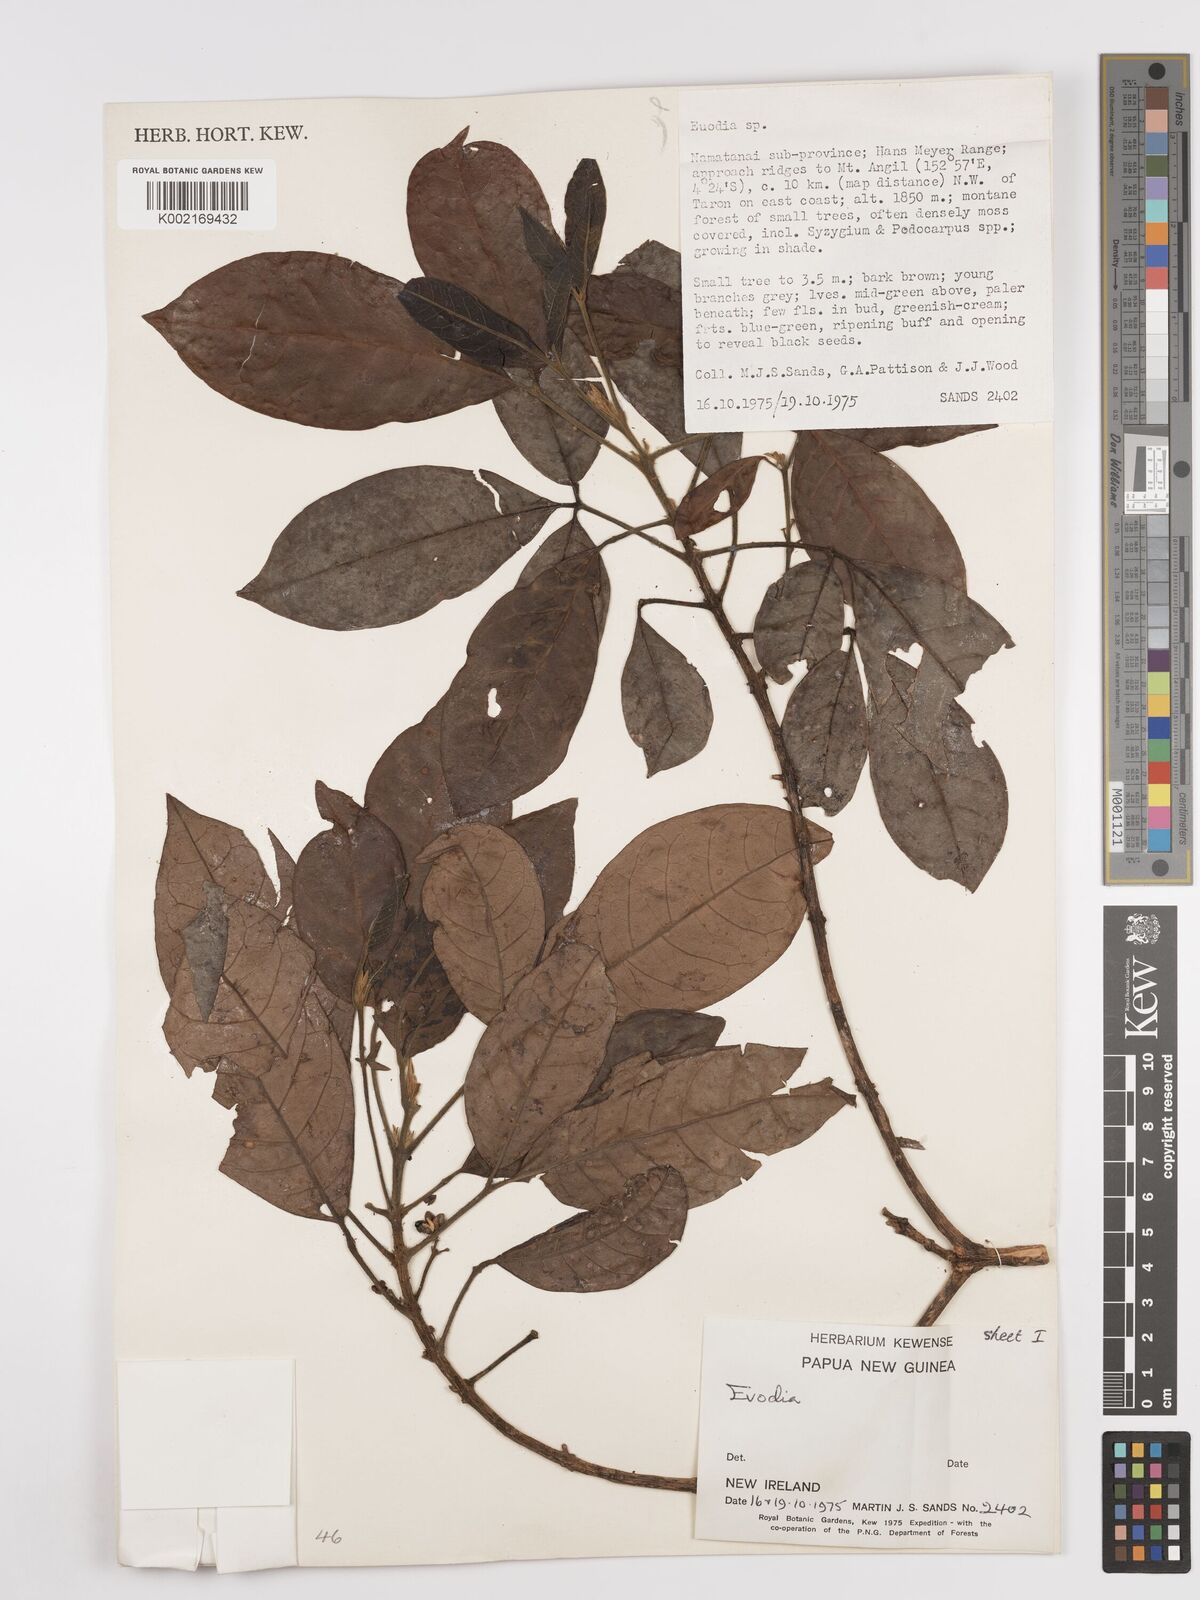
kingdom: Plantae
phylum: Tracheophyta
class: Magnoliopsida
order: Sapindales
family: Rutaceae
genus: Euodia
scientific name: Euodia
